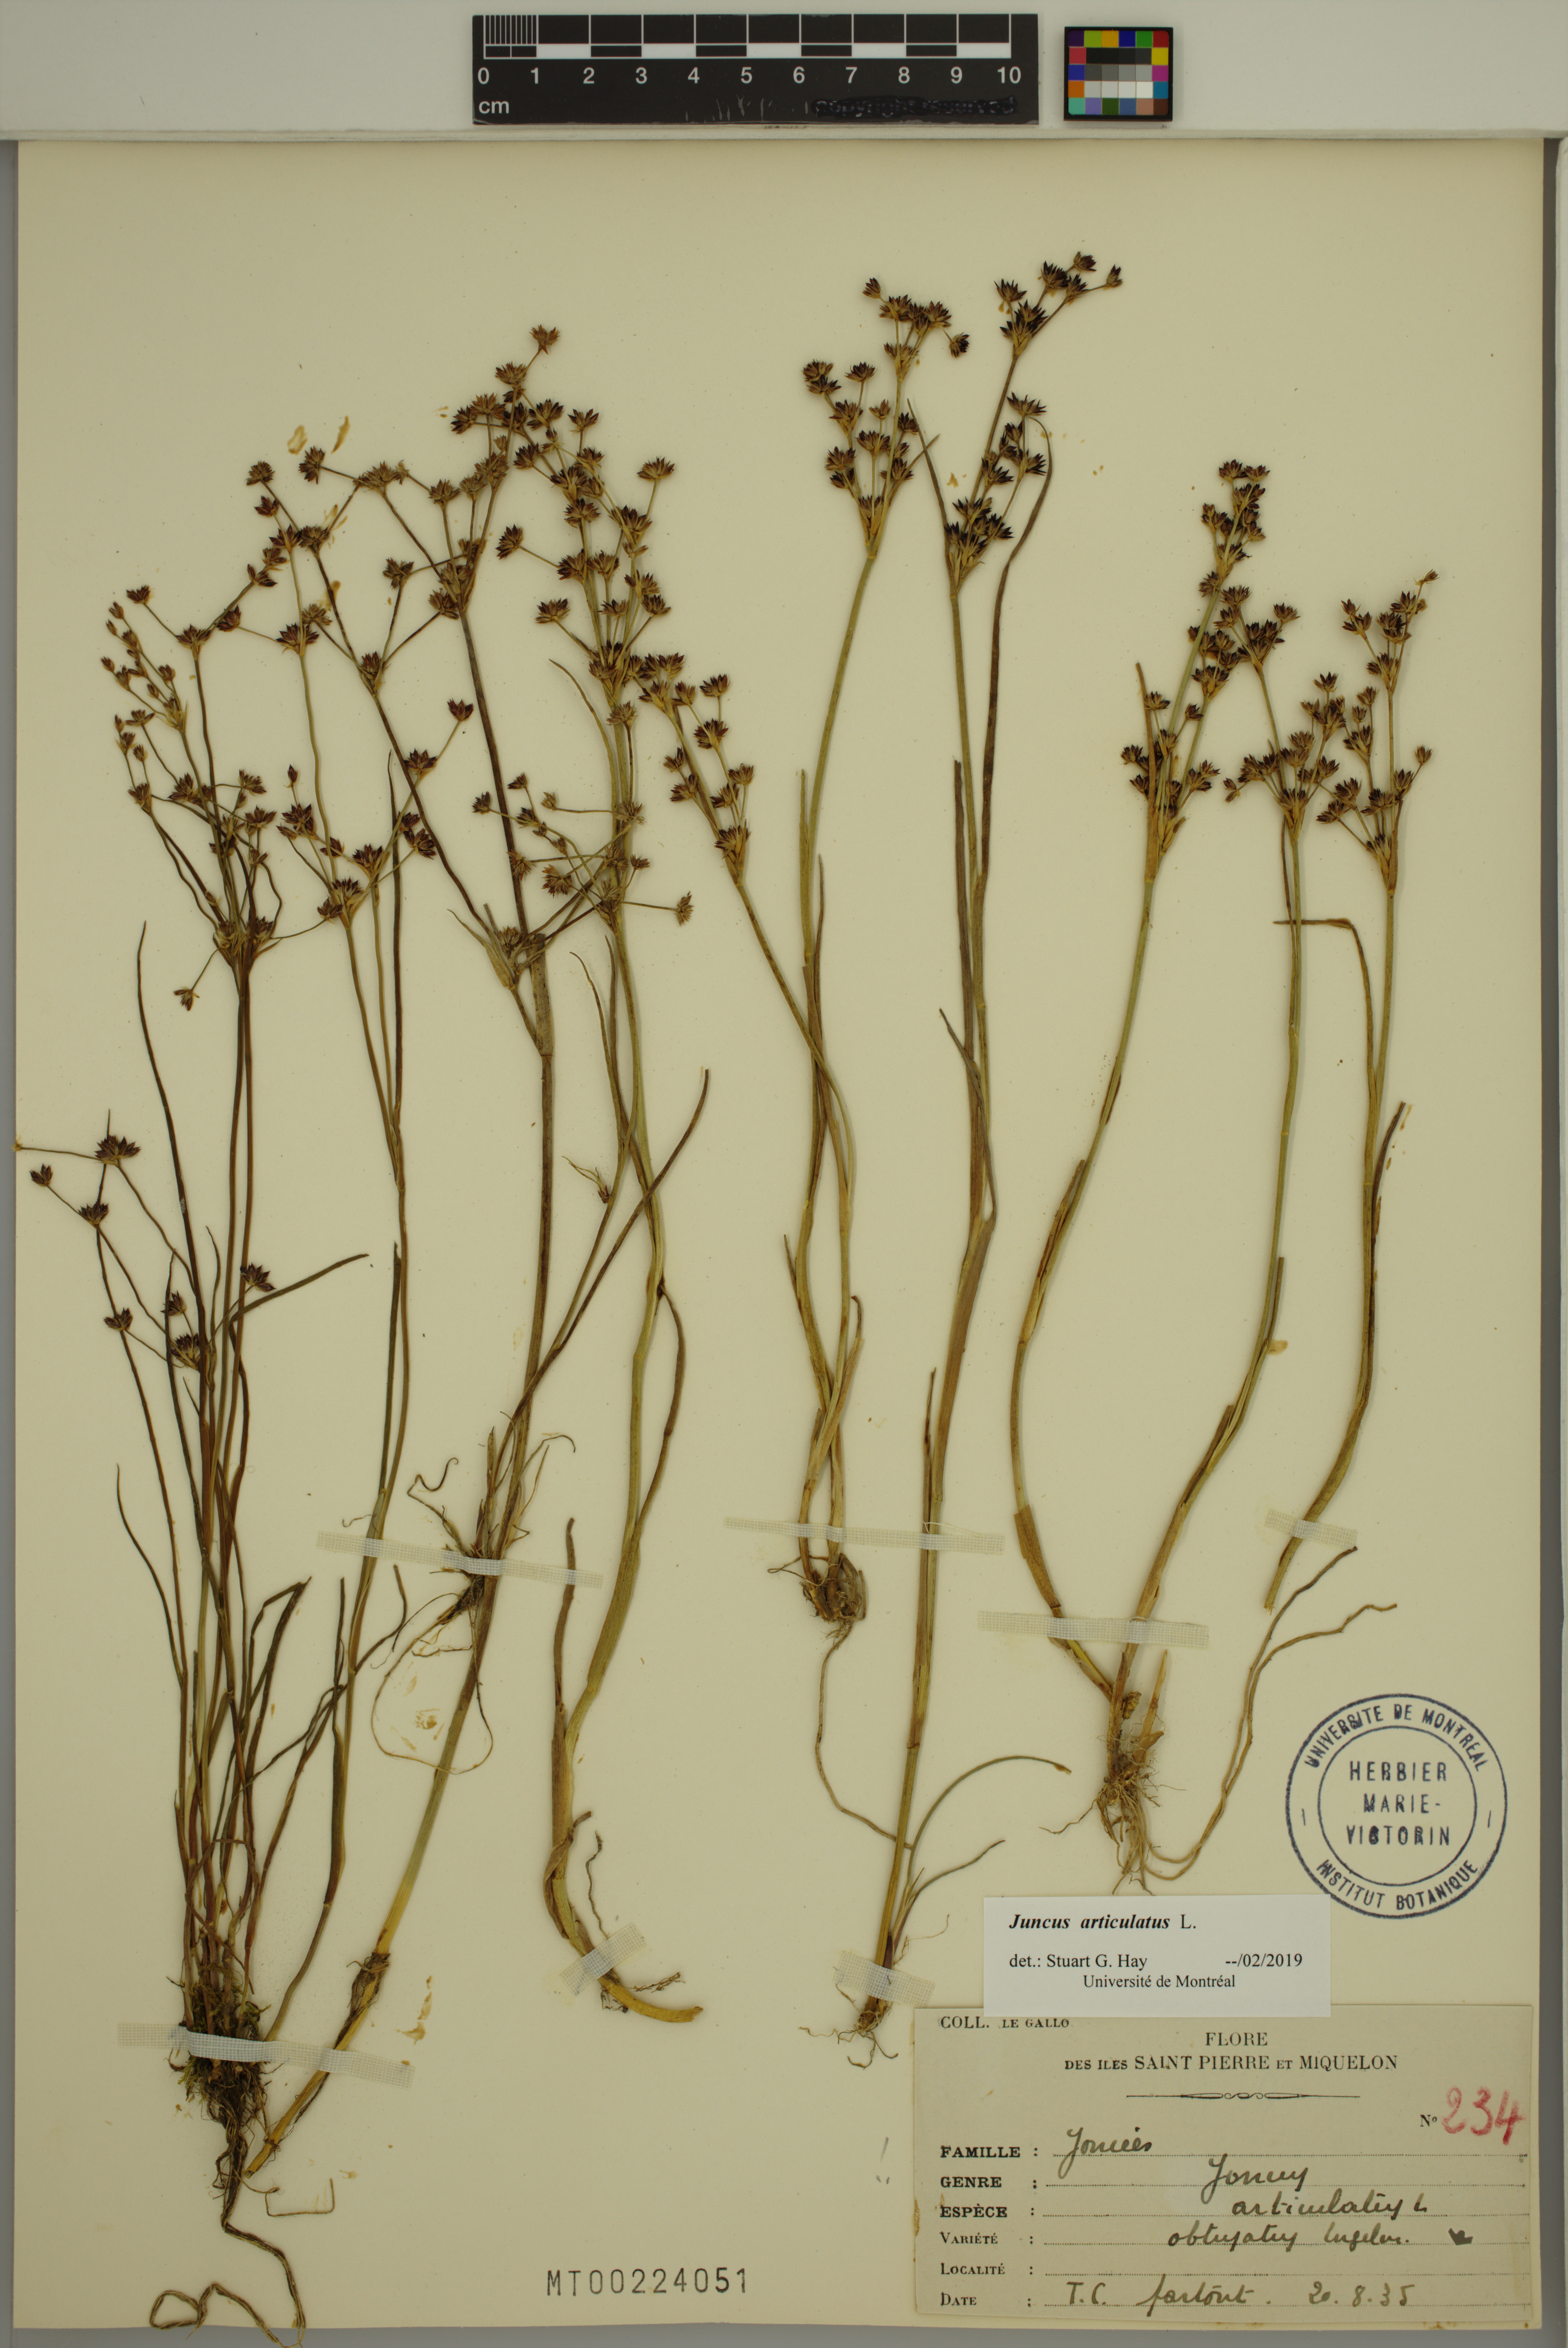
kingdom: Plantae
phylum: Tracheophyta
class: Liliopsida
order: Poales
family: Juncaceae
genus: Juncus
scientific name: Juncus articulatus
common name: Jointed rush
